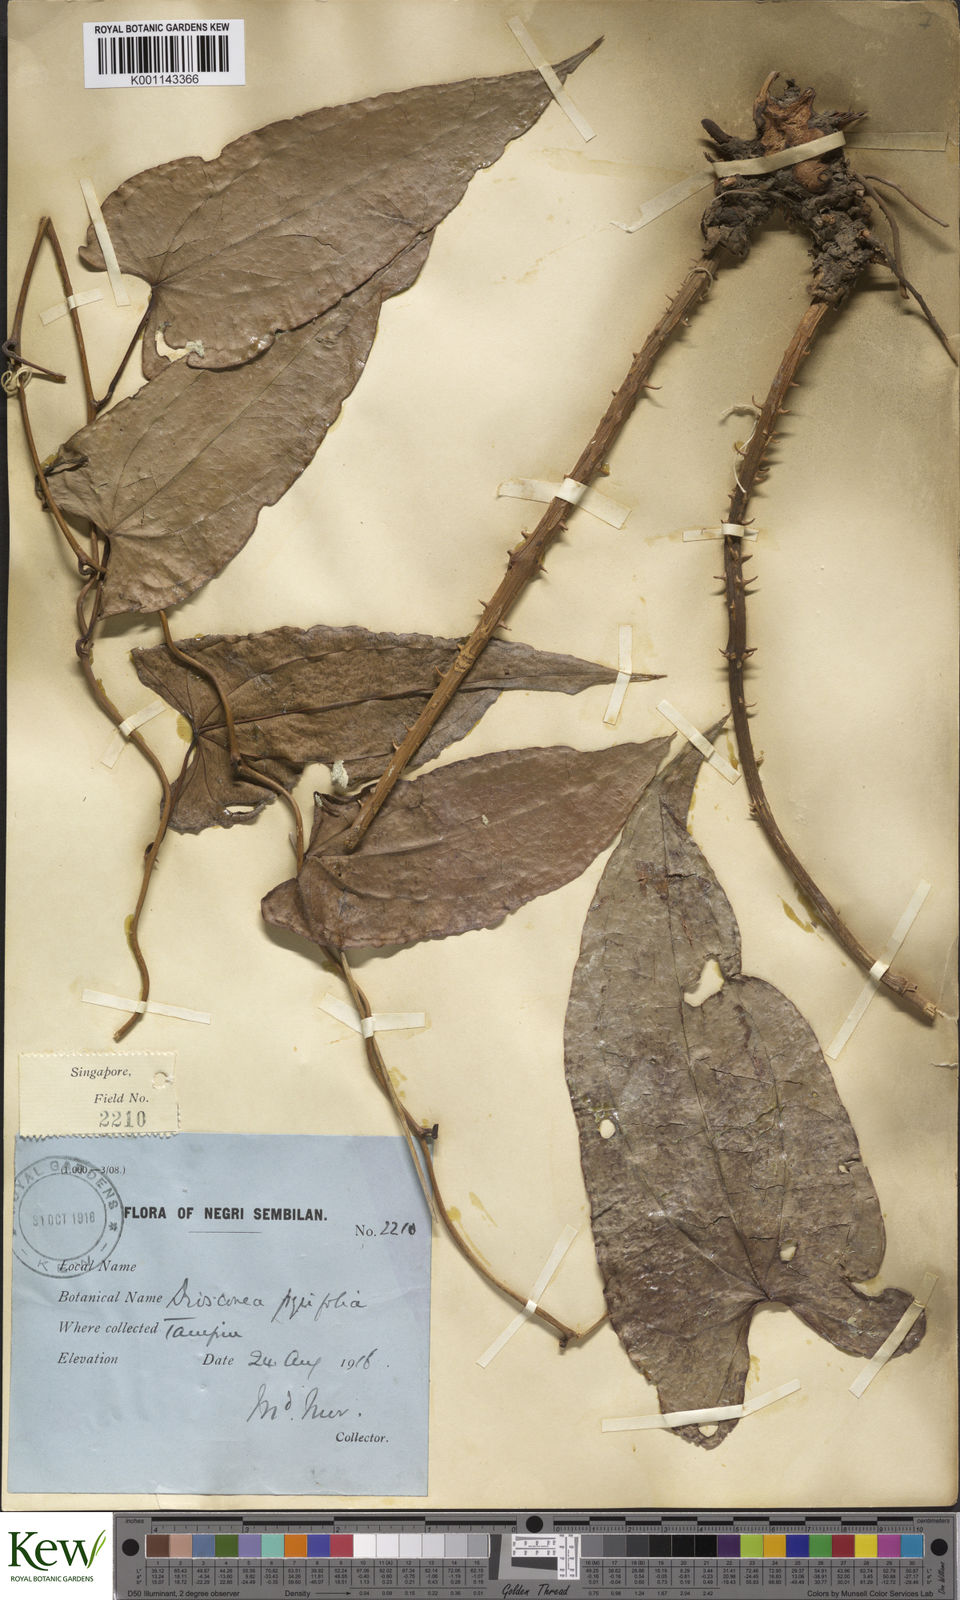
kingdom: Plantae
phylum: Tracheophyta
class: Liliopsida
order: Dioscoreales
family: Dioscoreaceae
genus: Dioscorea
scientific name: Dioscorea pyrifolia
